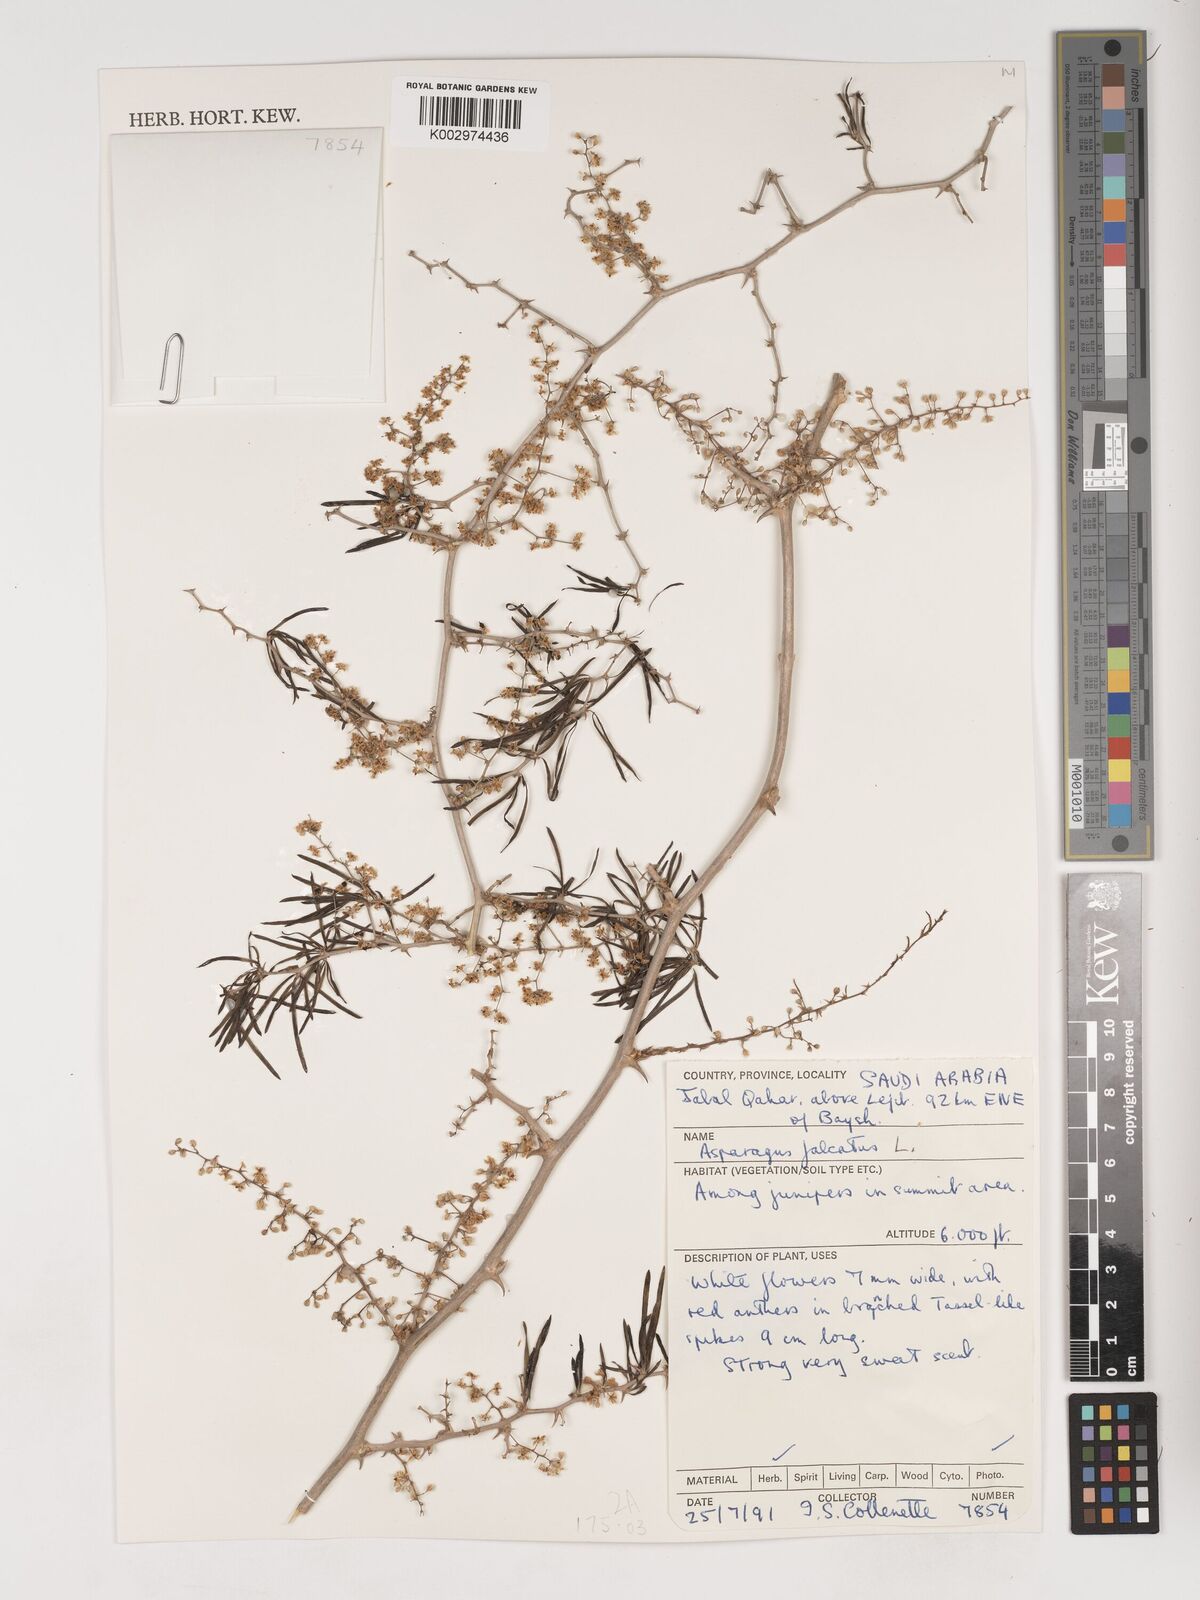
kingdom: Plantae
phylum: Tracheophyta
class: Liliopsida
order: Asparagales
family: Asparagaceae
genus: Asparagus
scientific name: Asparagus falcatus
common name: Asparagus
